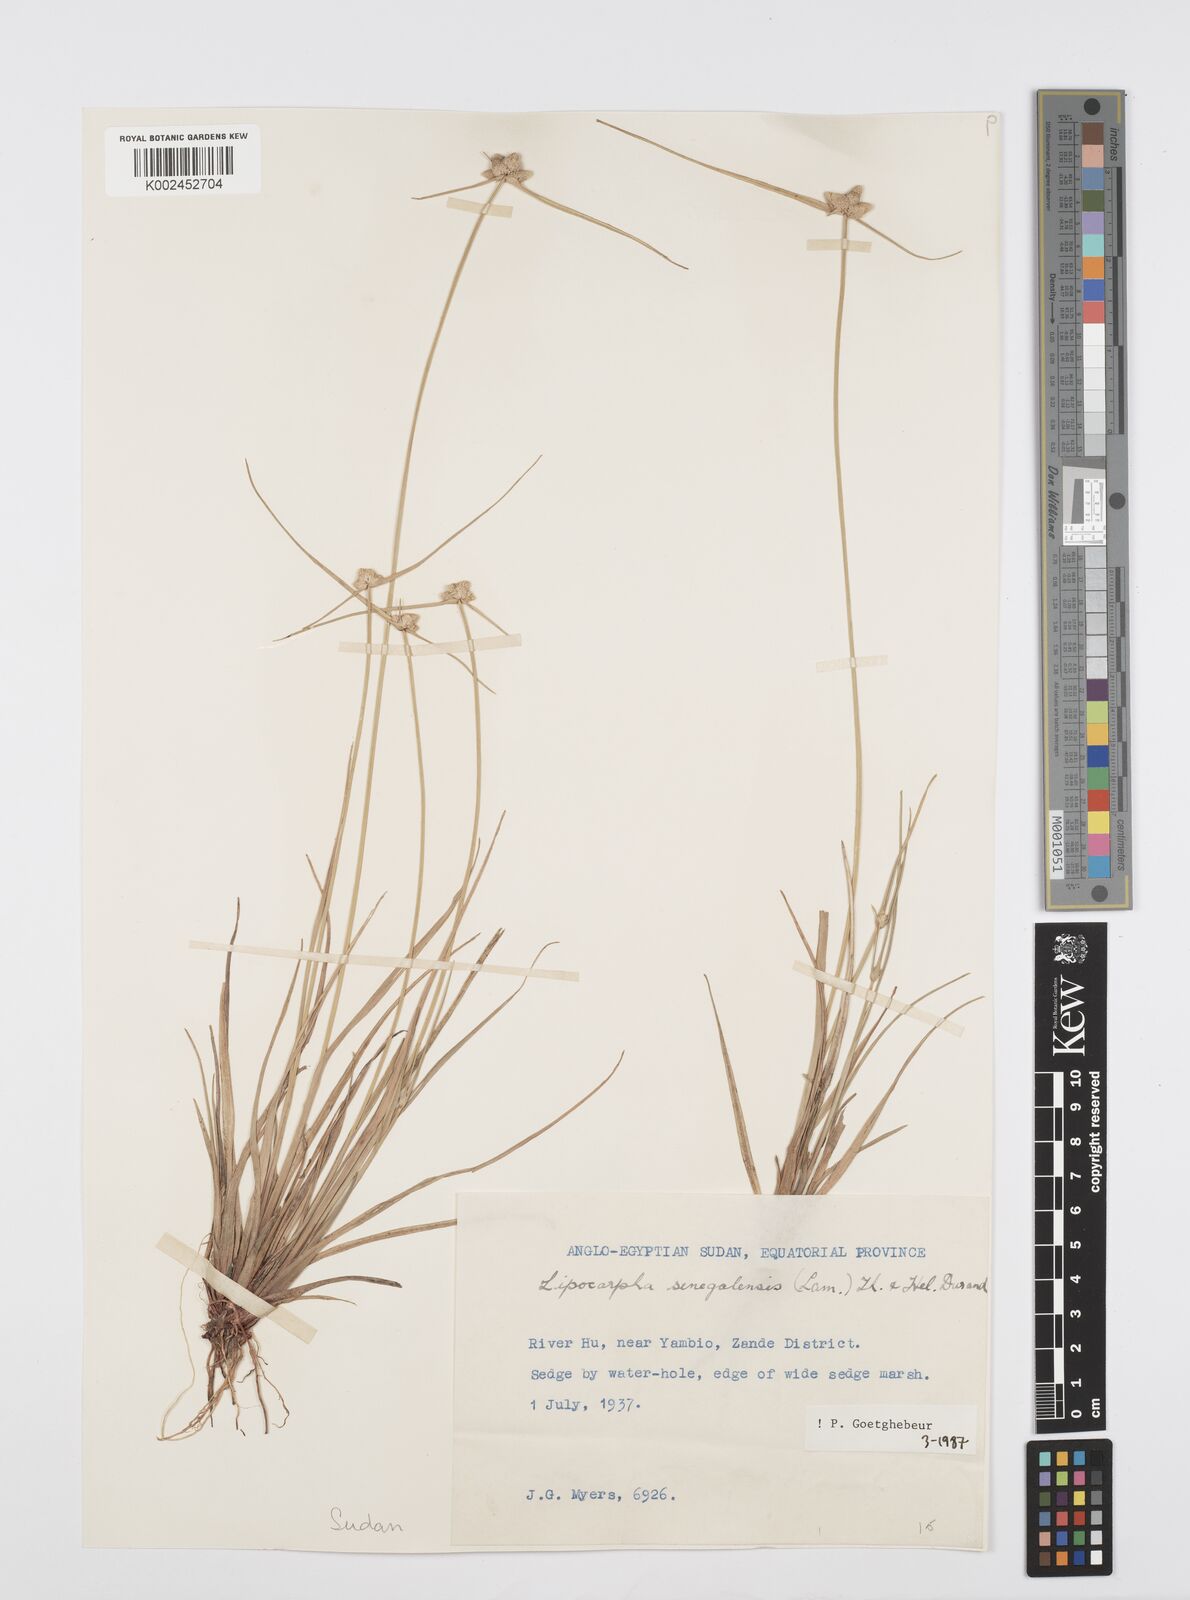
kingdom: Plantae
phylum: Tracheophyta
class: Liliopsida
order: Poales
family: Cyperaceae
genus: Cyperus
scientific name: Cyperus albescens
